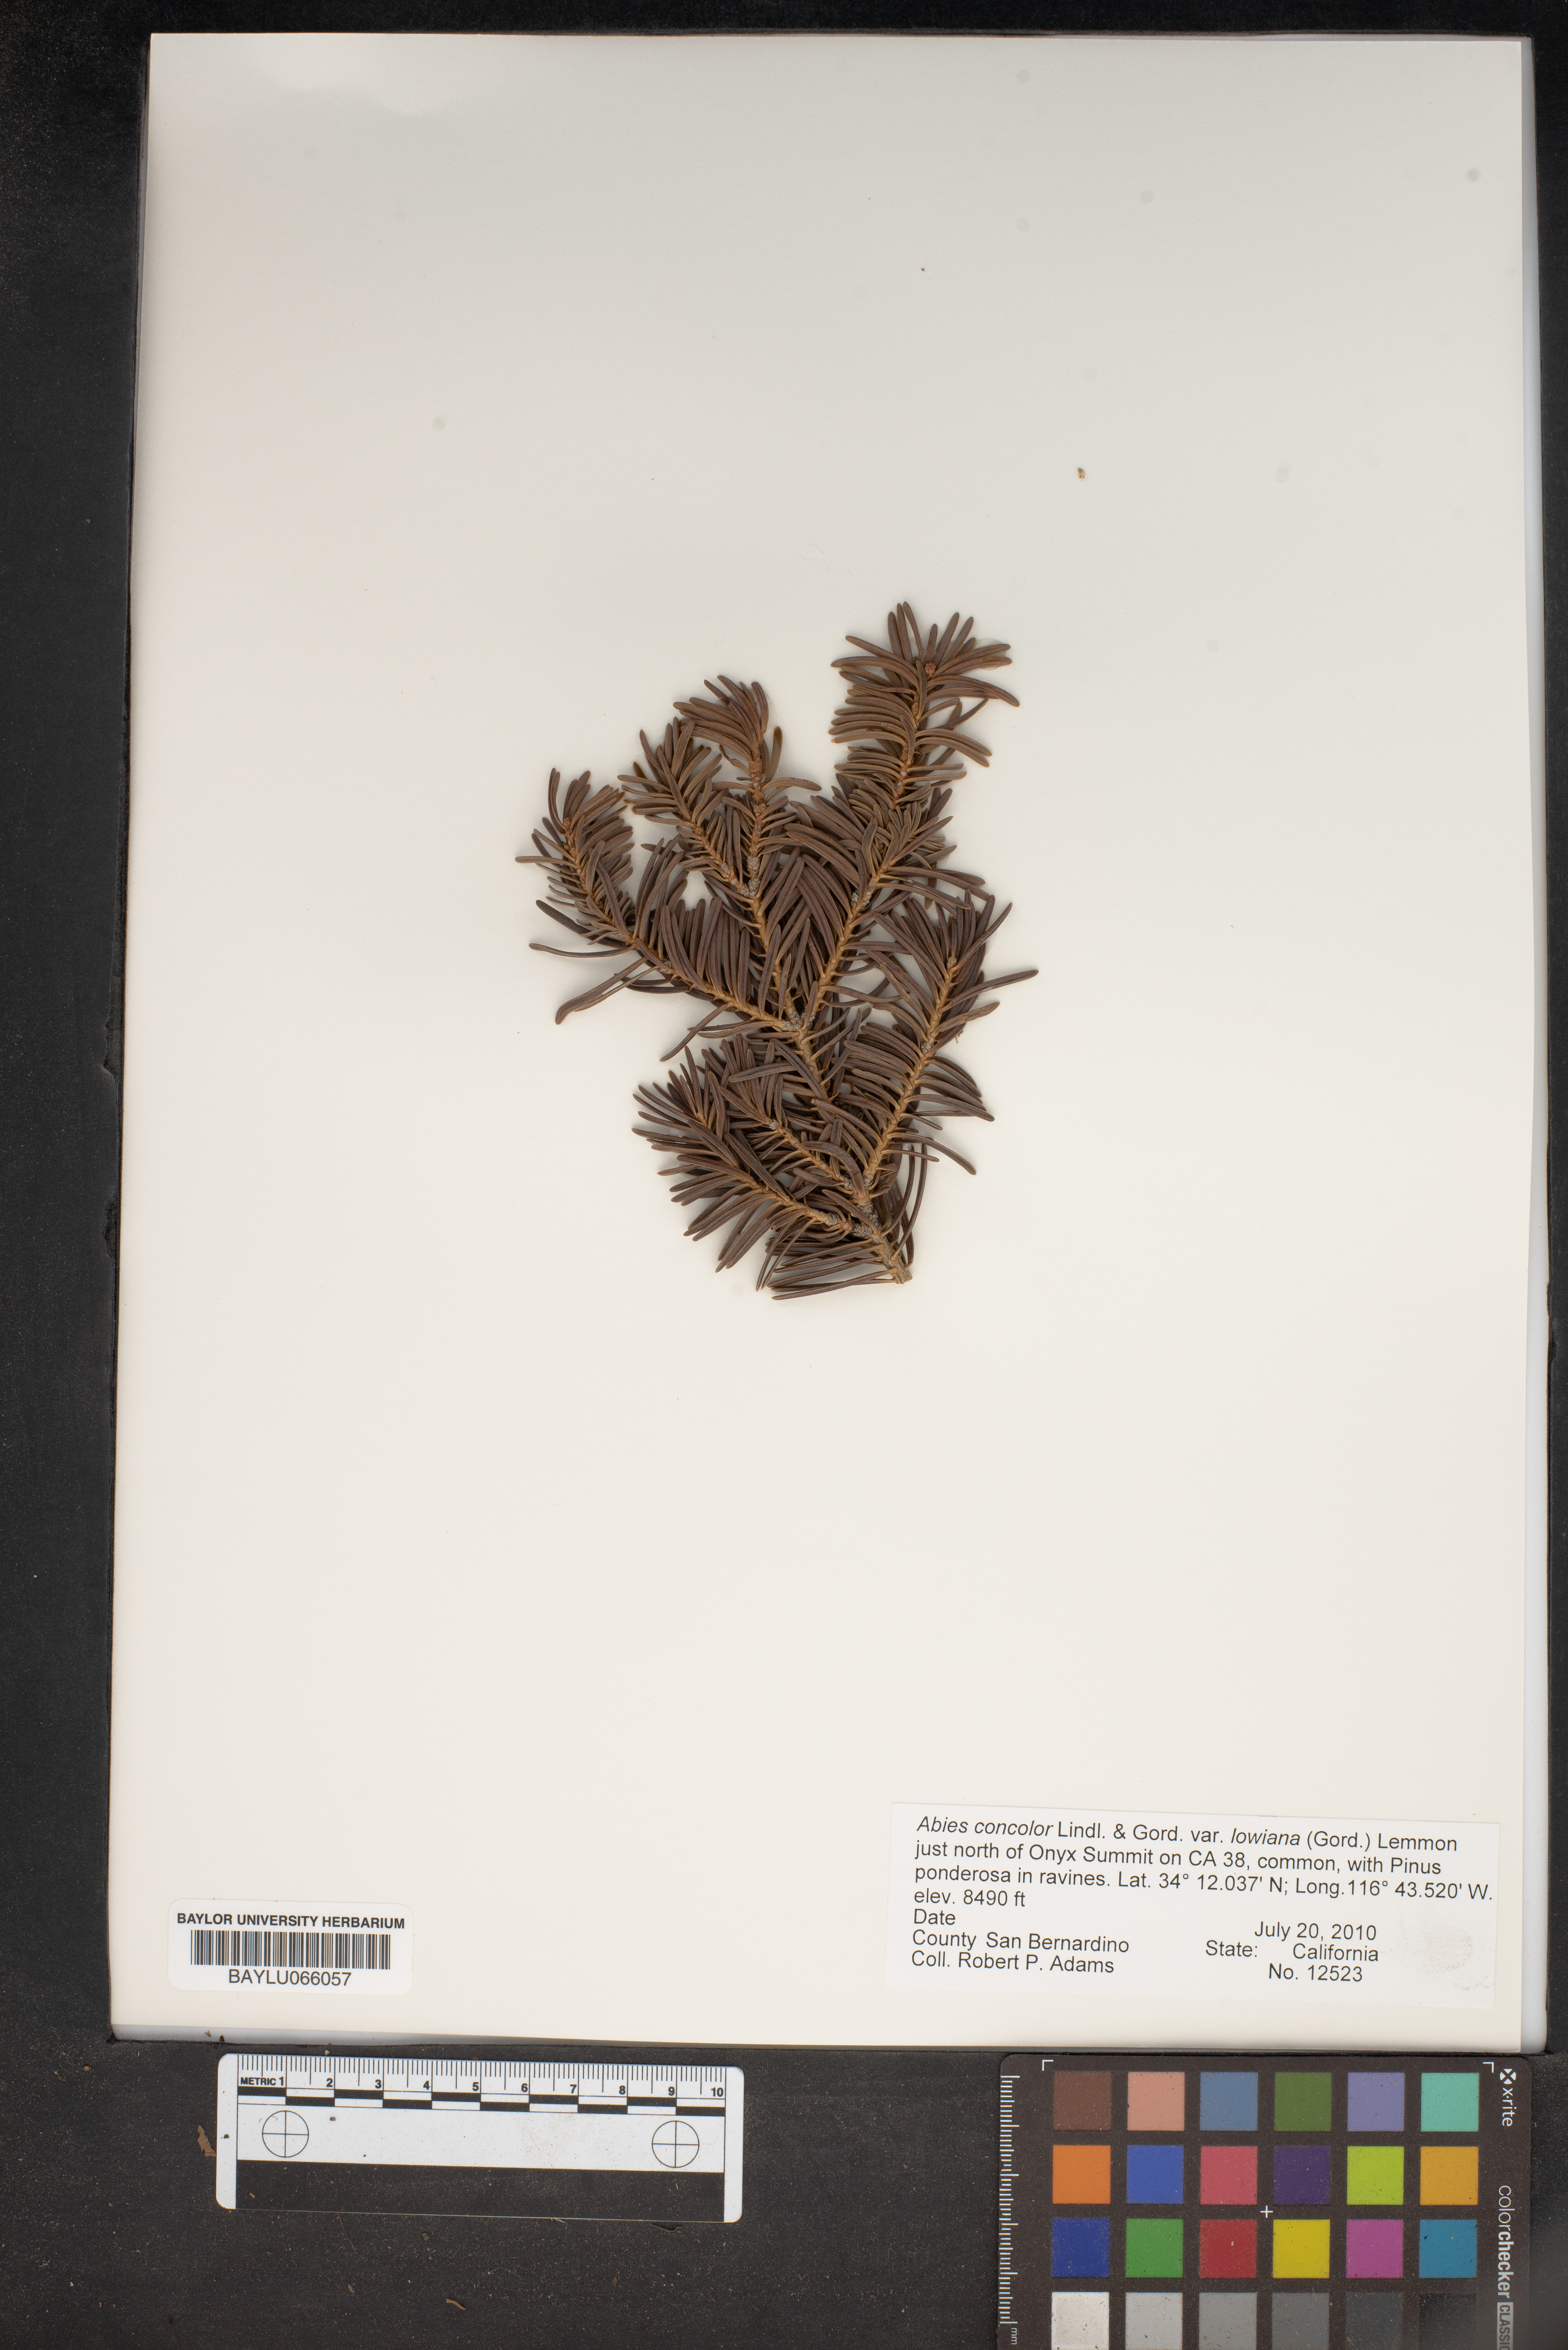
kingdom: Plantae
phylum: Tracheophyta
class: Pinopsida
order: Pinales
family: Pinaceae
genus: Abies
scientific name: Abies concolor
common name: Colorado fir
